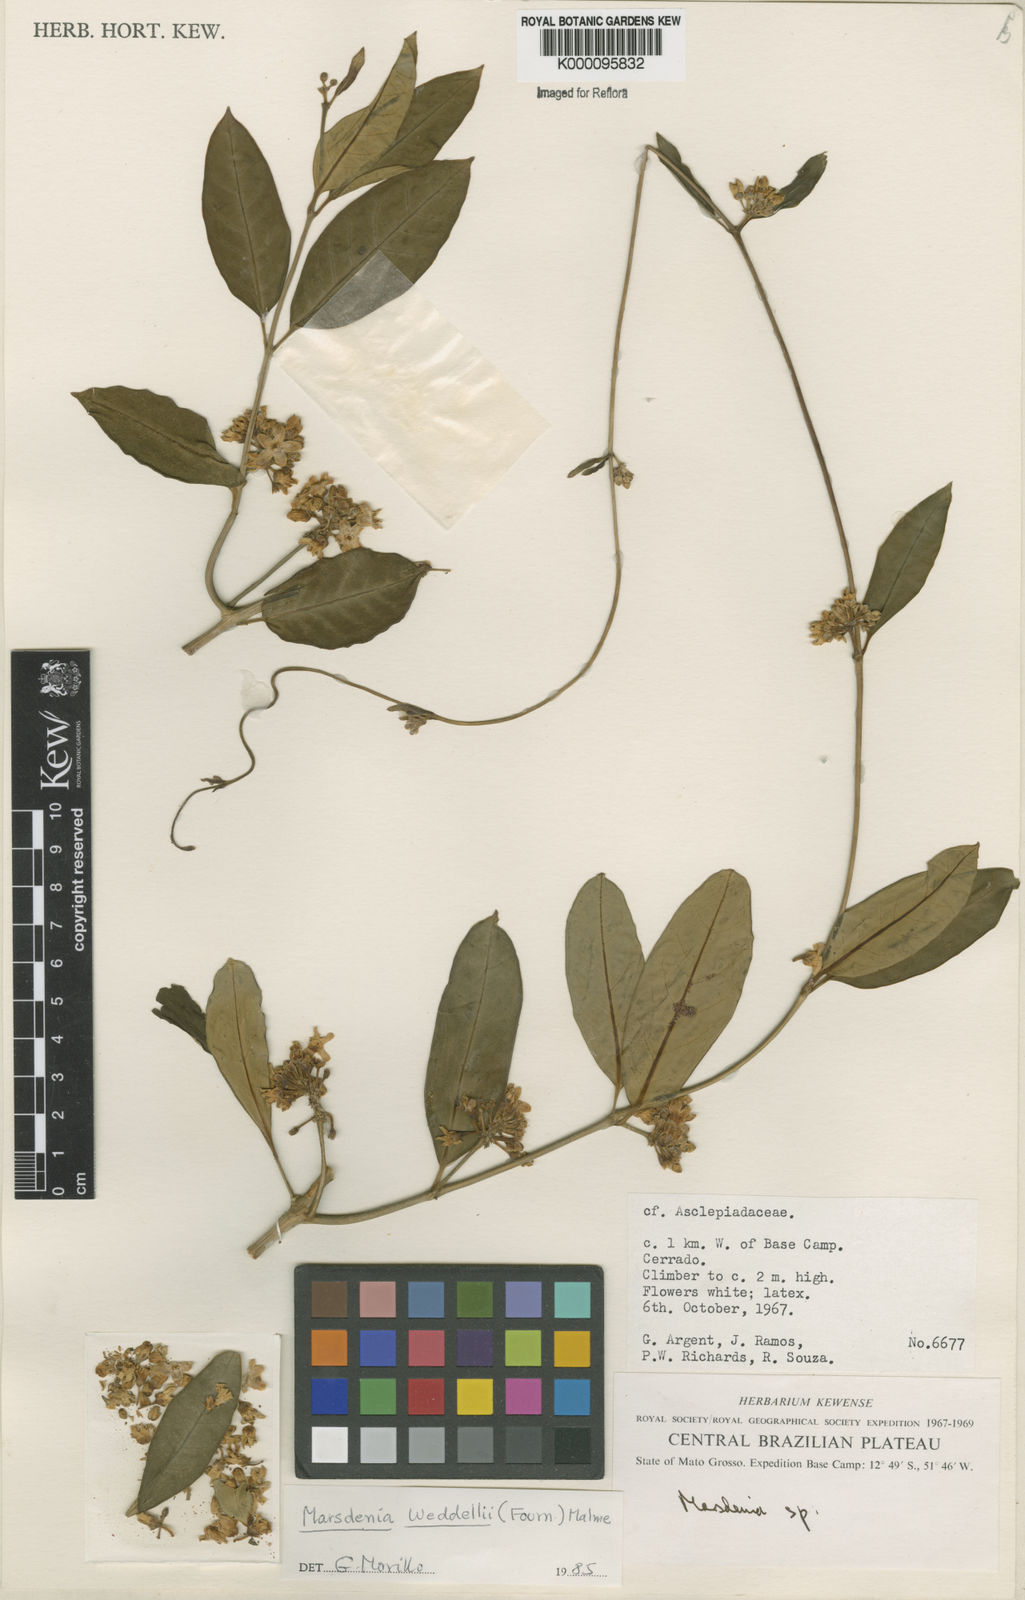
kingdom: Plantae
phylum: Tracheophyta
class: Magnoliopsida
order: Gentianales
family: Apocynaceae
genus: Ruehssia
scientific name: Ruehssia weddellii
